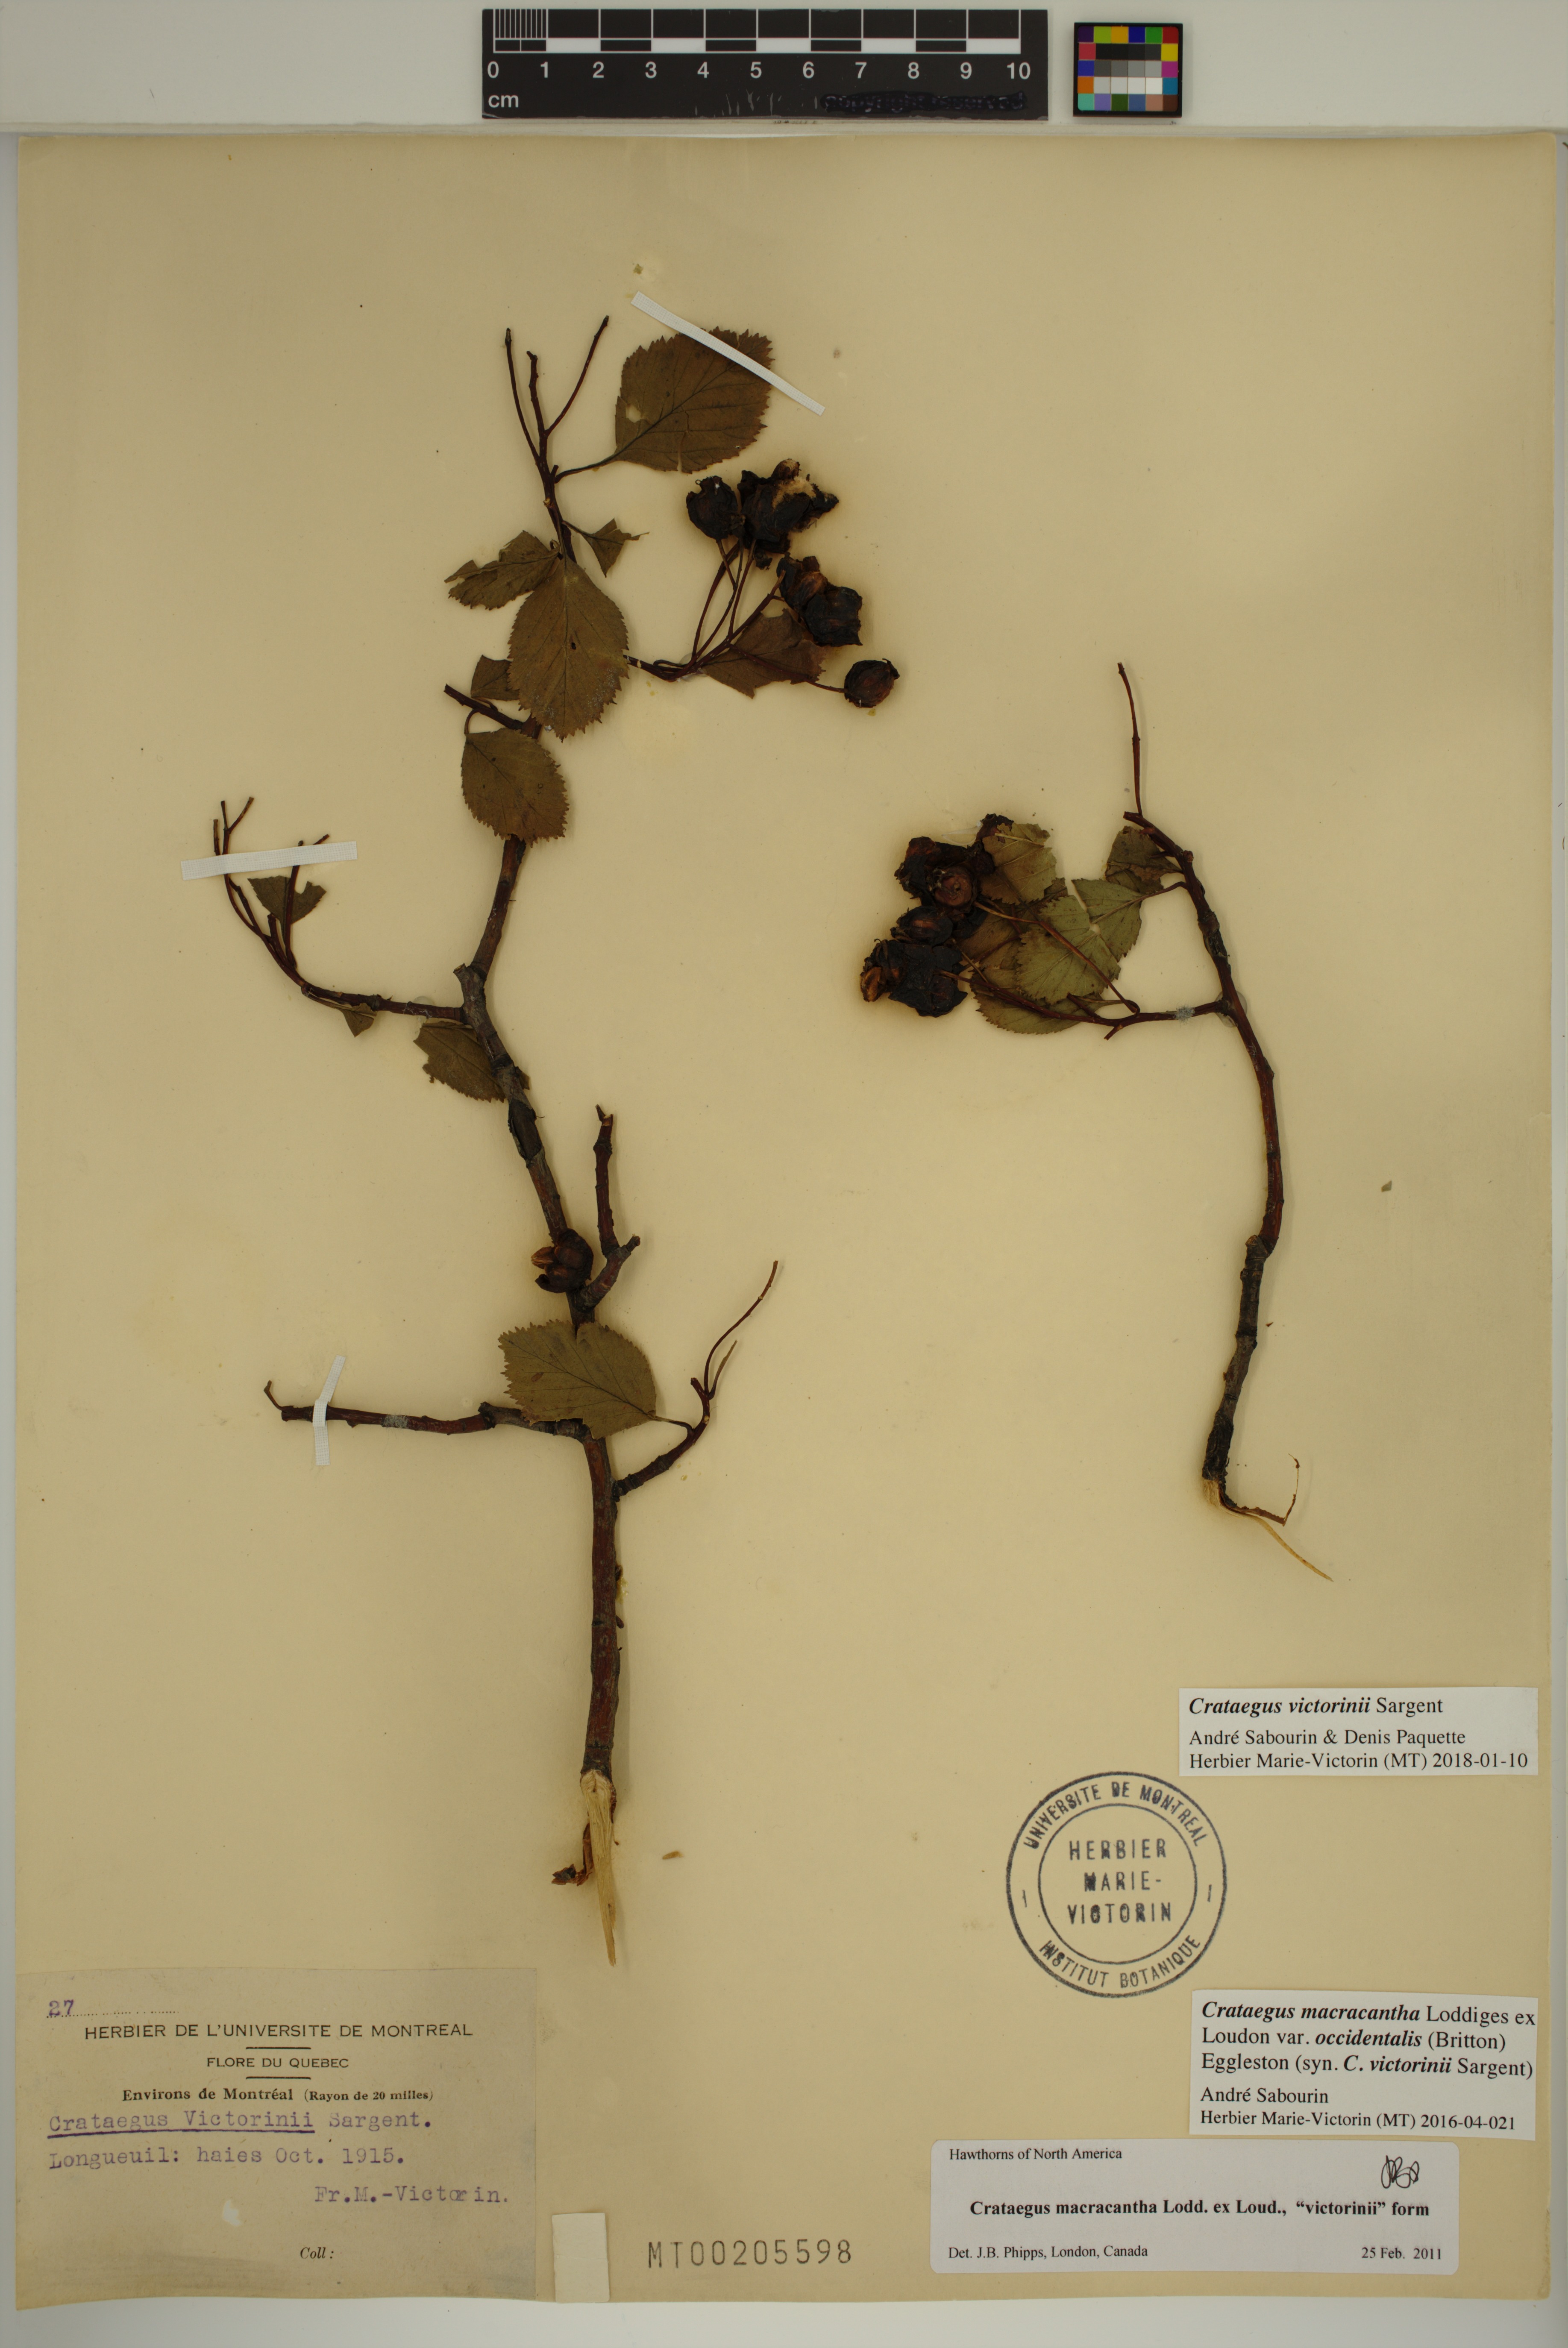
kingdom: Plantae
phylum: Tracheophyta
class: Magnoliopsida
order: Rosales
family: Rosaceae
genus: Crataegus
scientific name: Crataegus macracantha
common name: Large-thorn hawthorn
